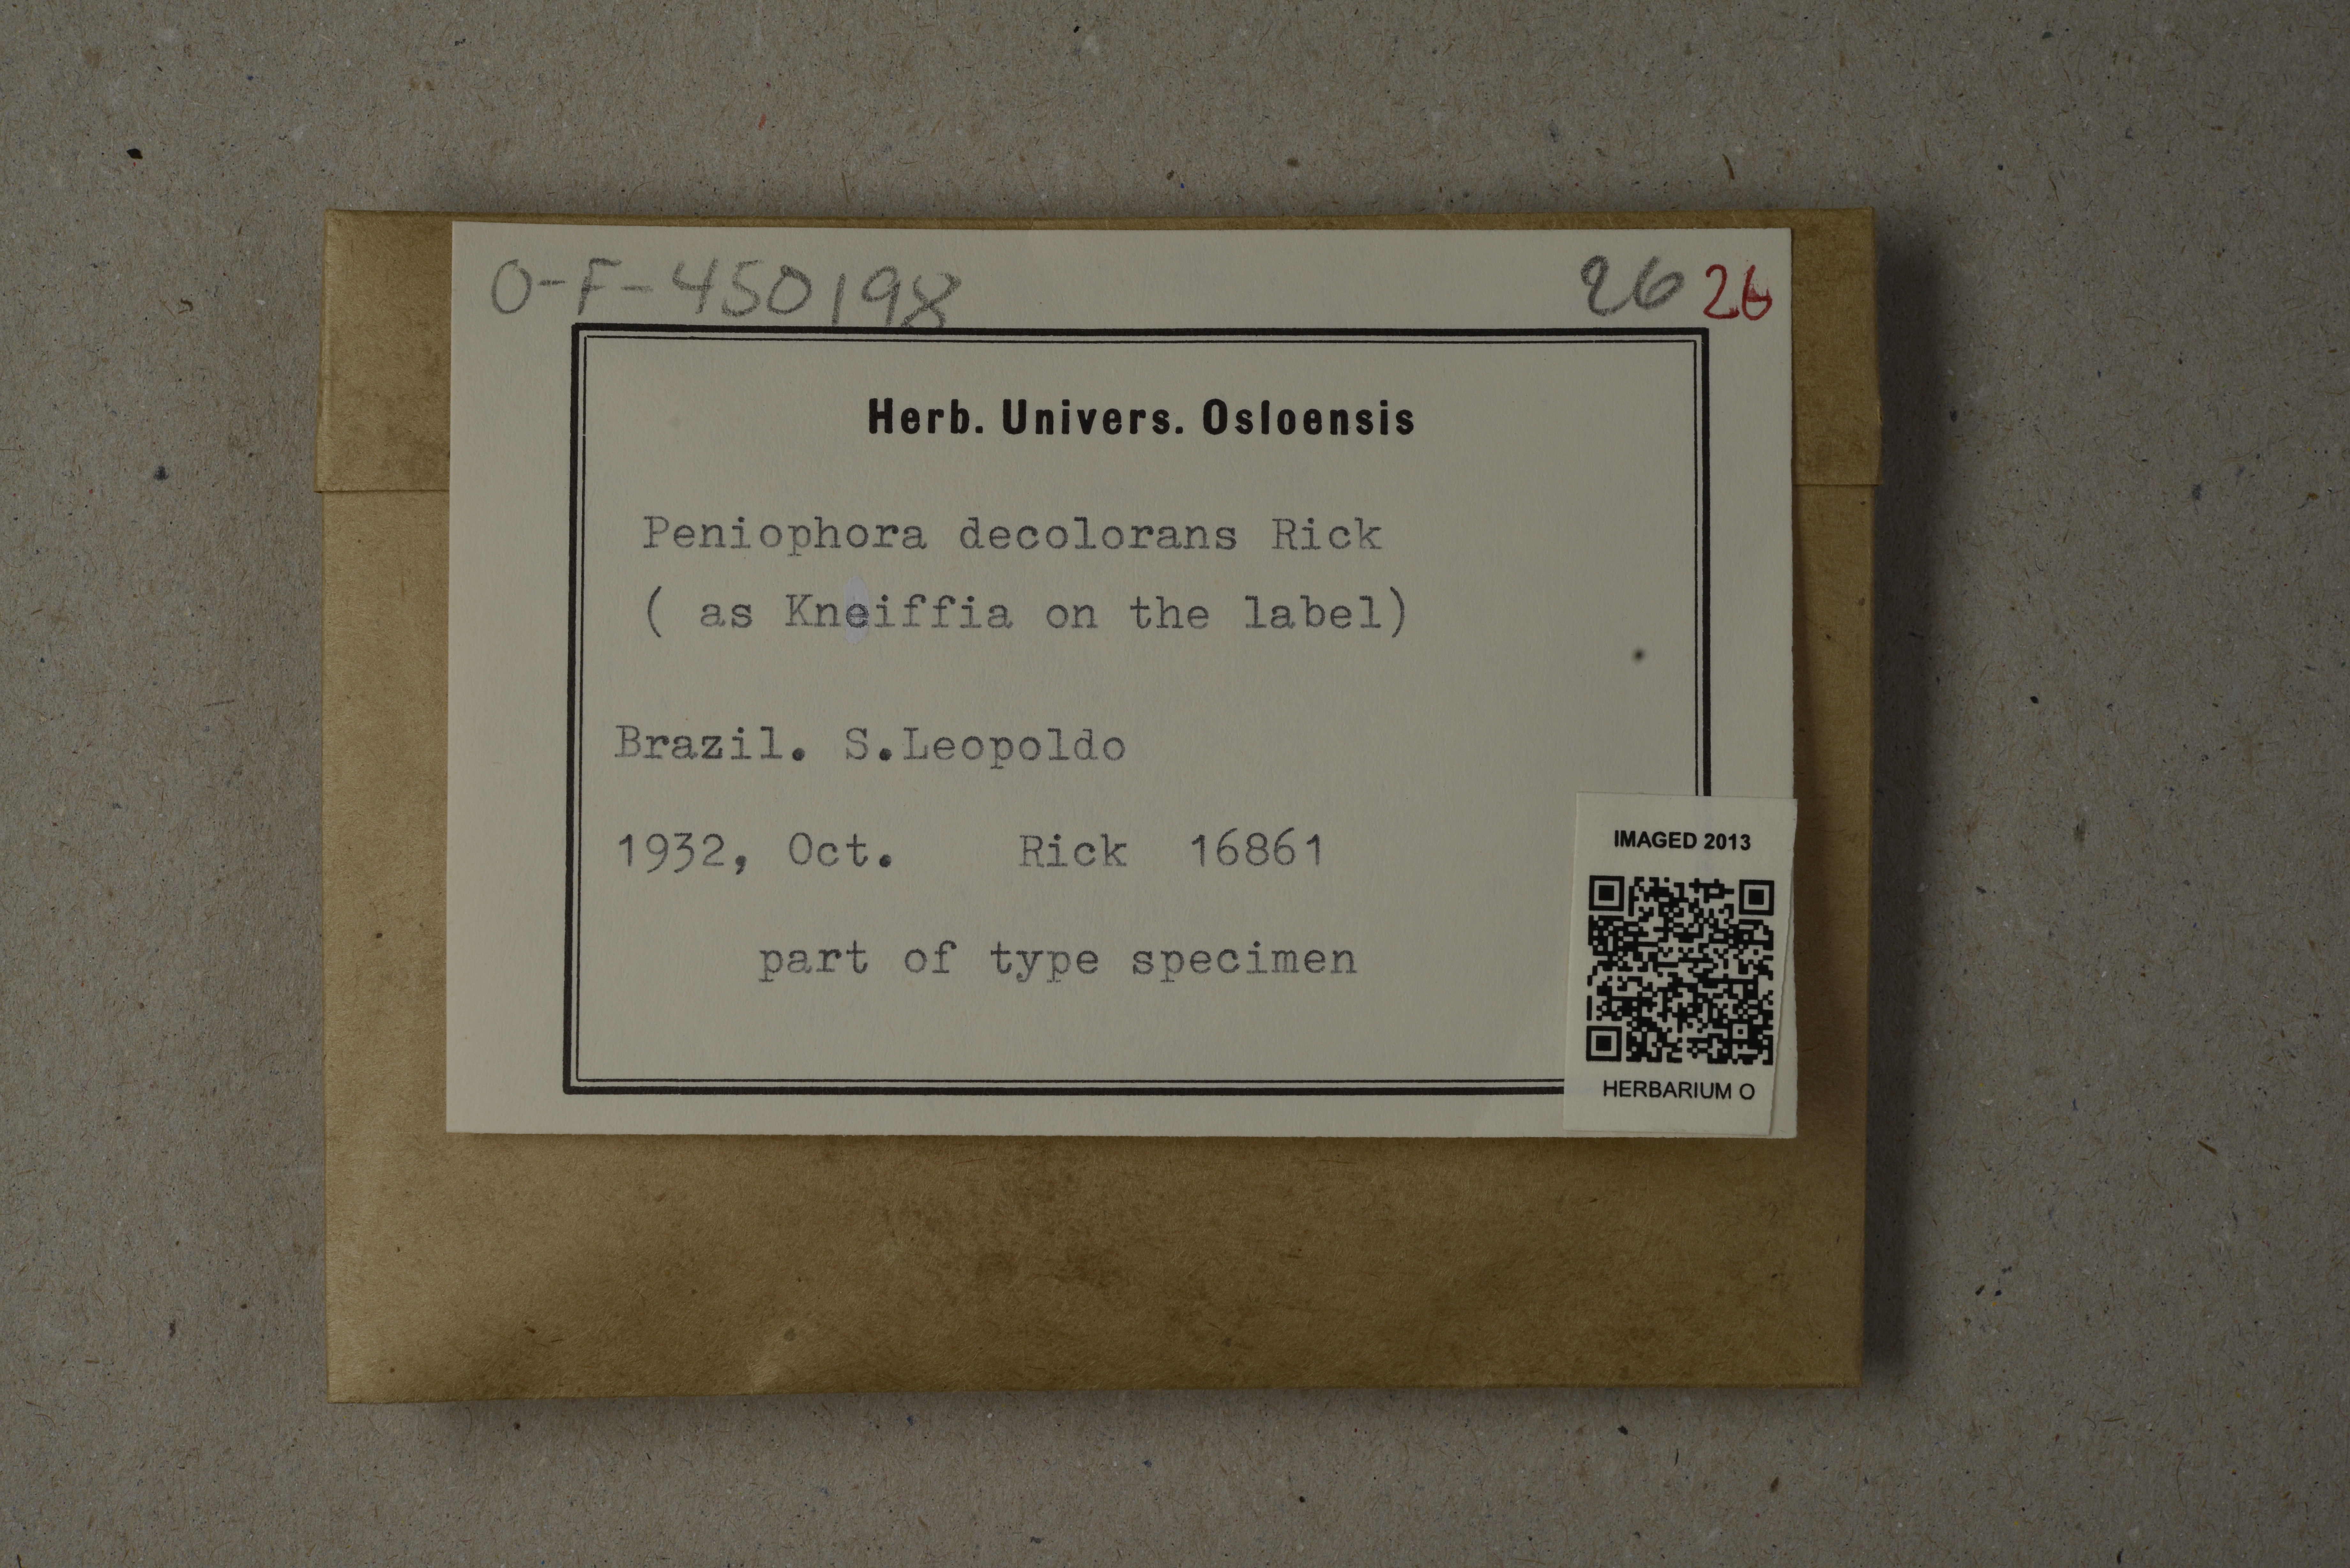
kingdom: Fungi
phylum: Basidiomycota
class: Agaricomycetes
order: Russulales
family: Peniophoraceae
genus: Peniophora
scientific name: Peniophora decolorans
